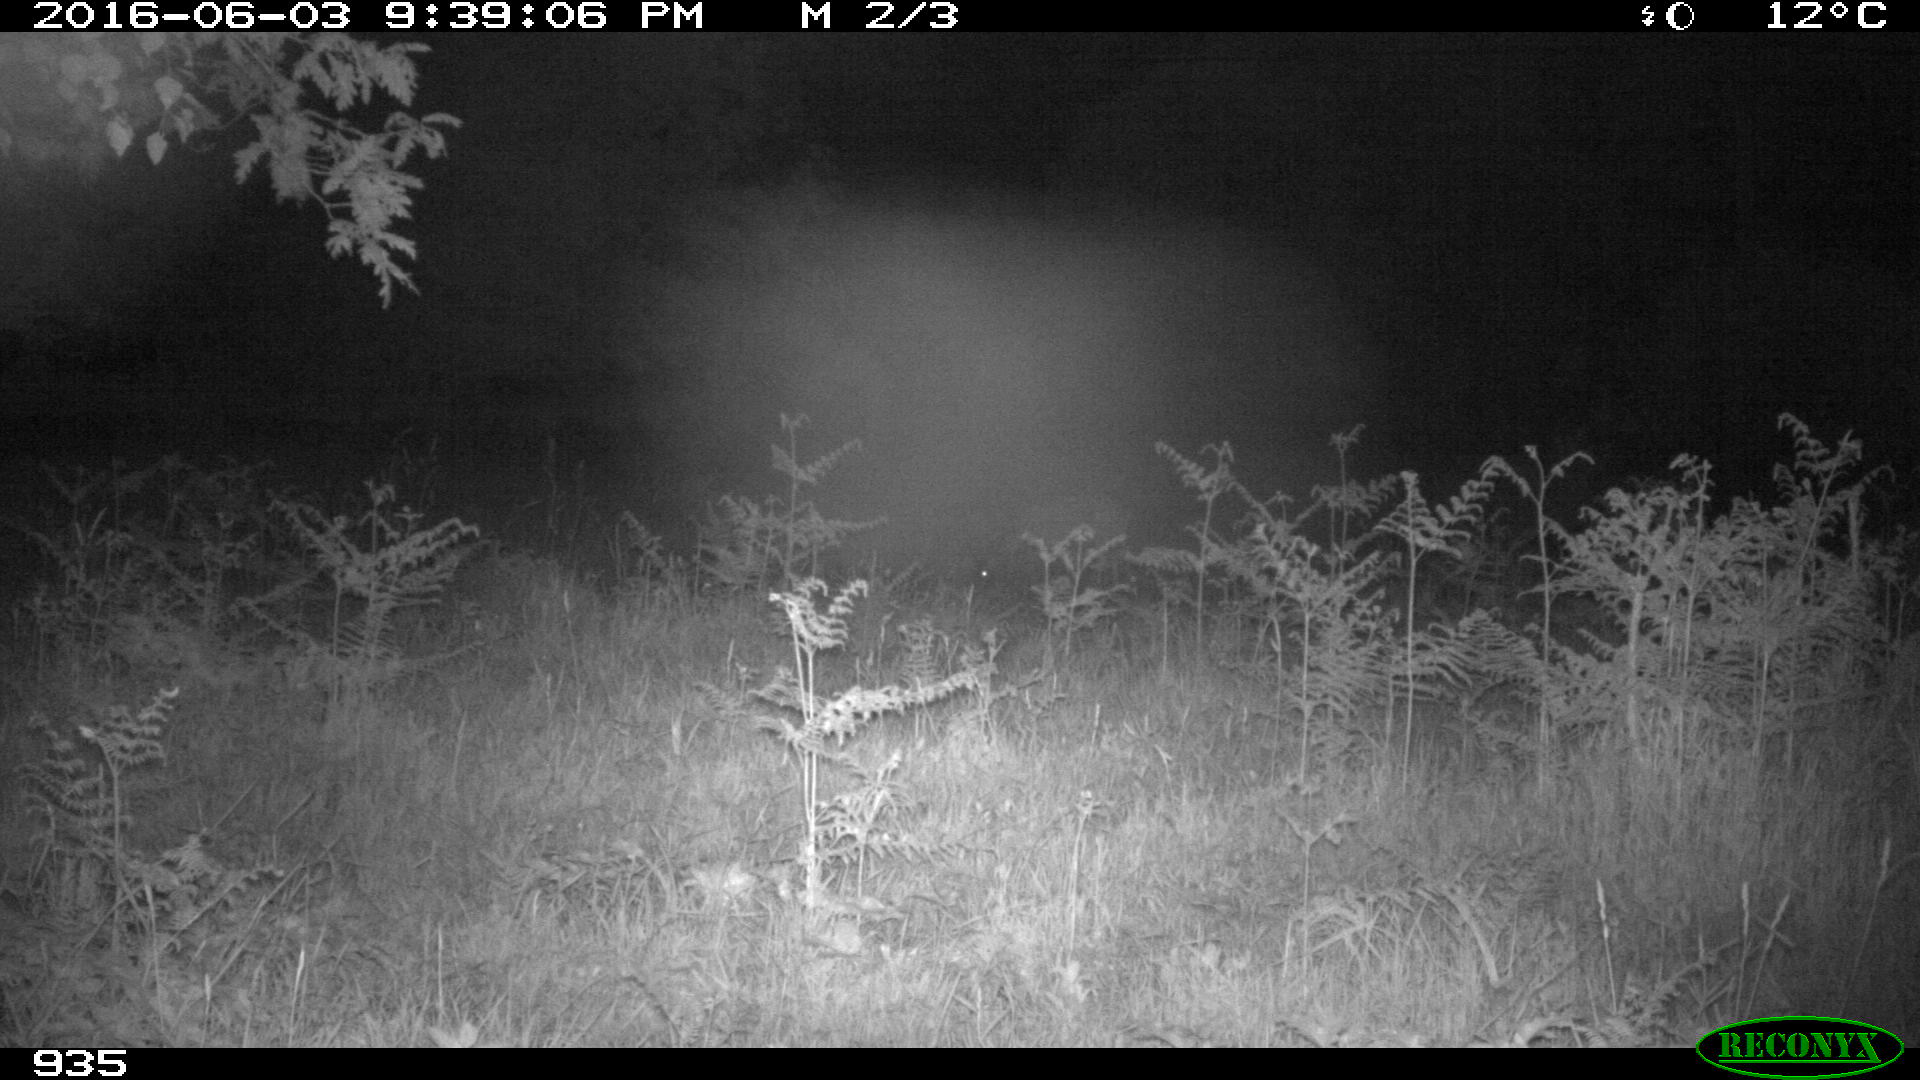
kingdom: Animalia
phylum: Chordata
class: Mammalia
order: Artiodactyla
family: Cervidae
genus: Capreolus
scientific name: Capreolus capreolus
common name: Western roe deer
